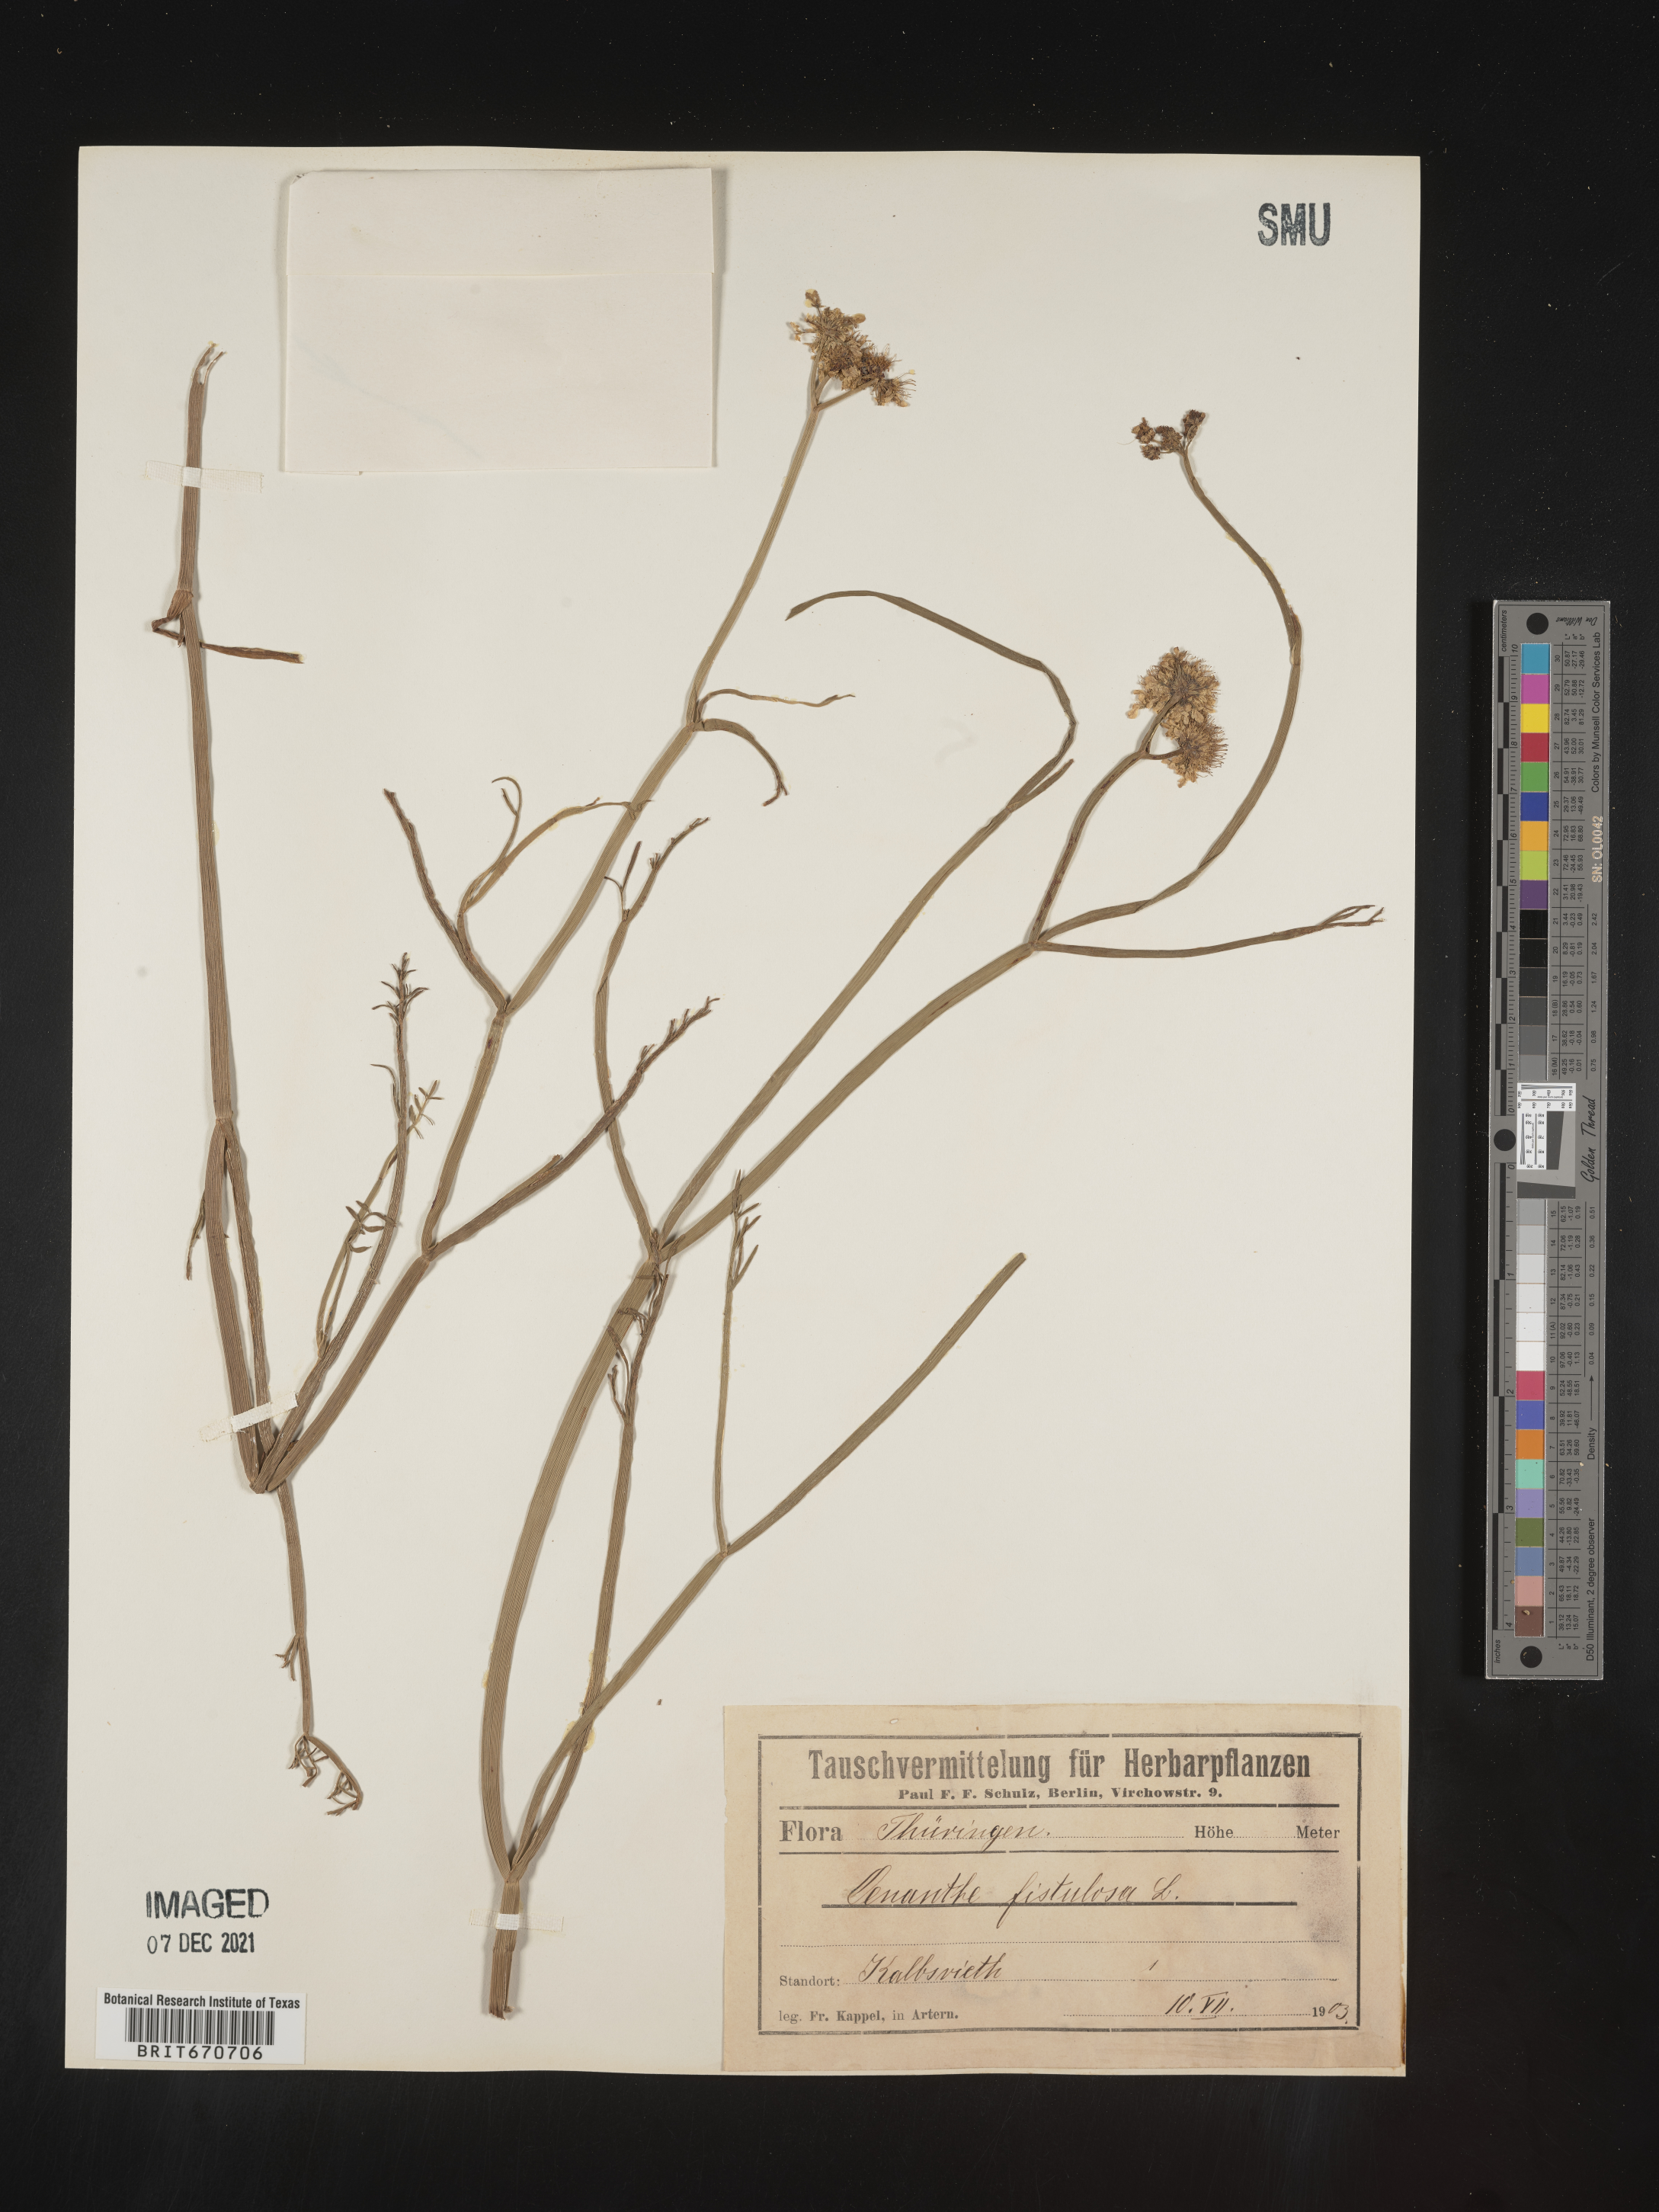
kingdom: Plantae
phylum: Tracheophyta
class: Magnoliopsida
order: Apiales
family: Apiaceae
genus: Oenanthe
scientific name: Oenanthe
